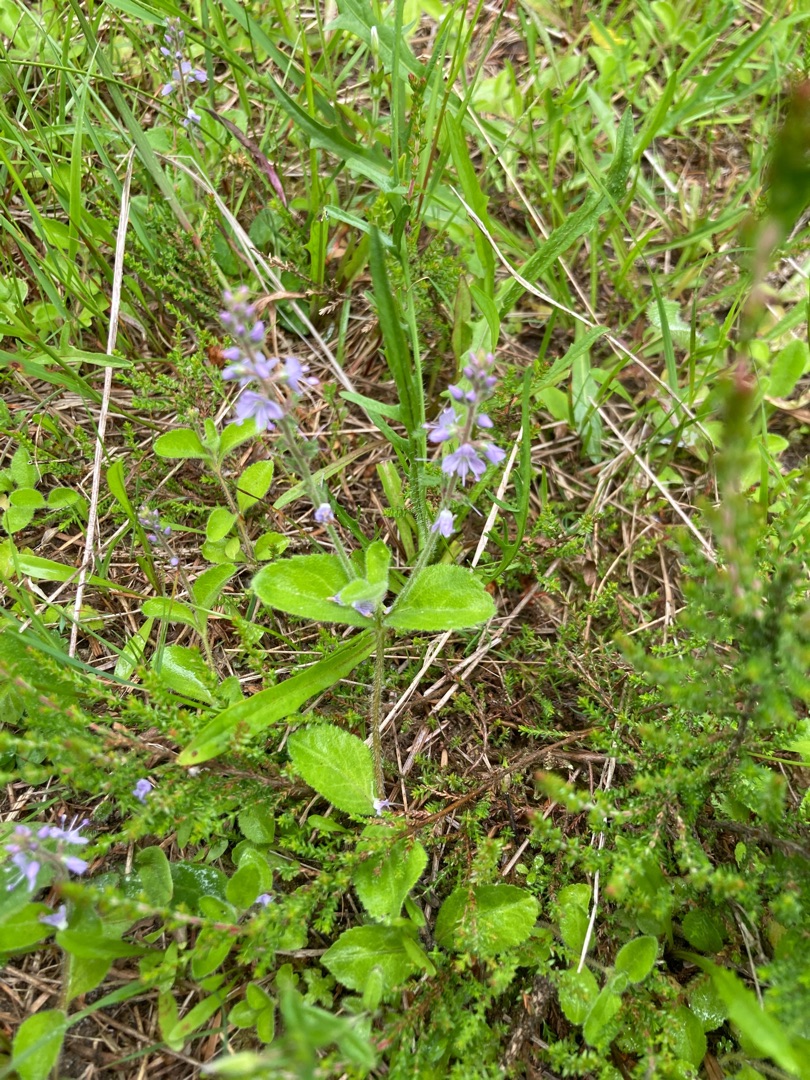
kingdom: Plantae
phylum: Tracheophyta
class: Magnoliopsida
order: Lamiales
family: Plantaginaceae
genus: Veronica
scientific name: Veronica officinalis
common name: Læge-ærenpris
